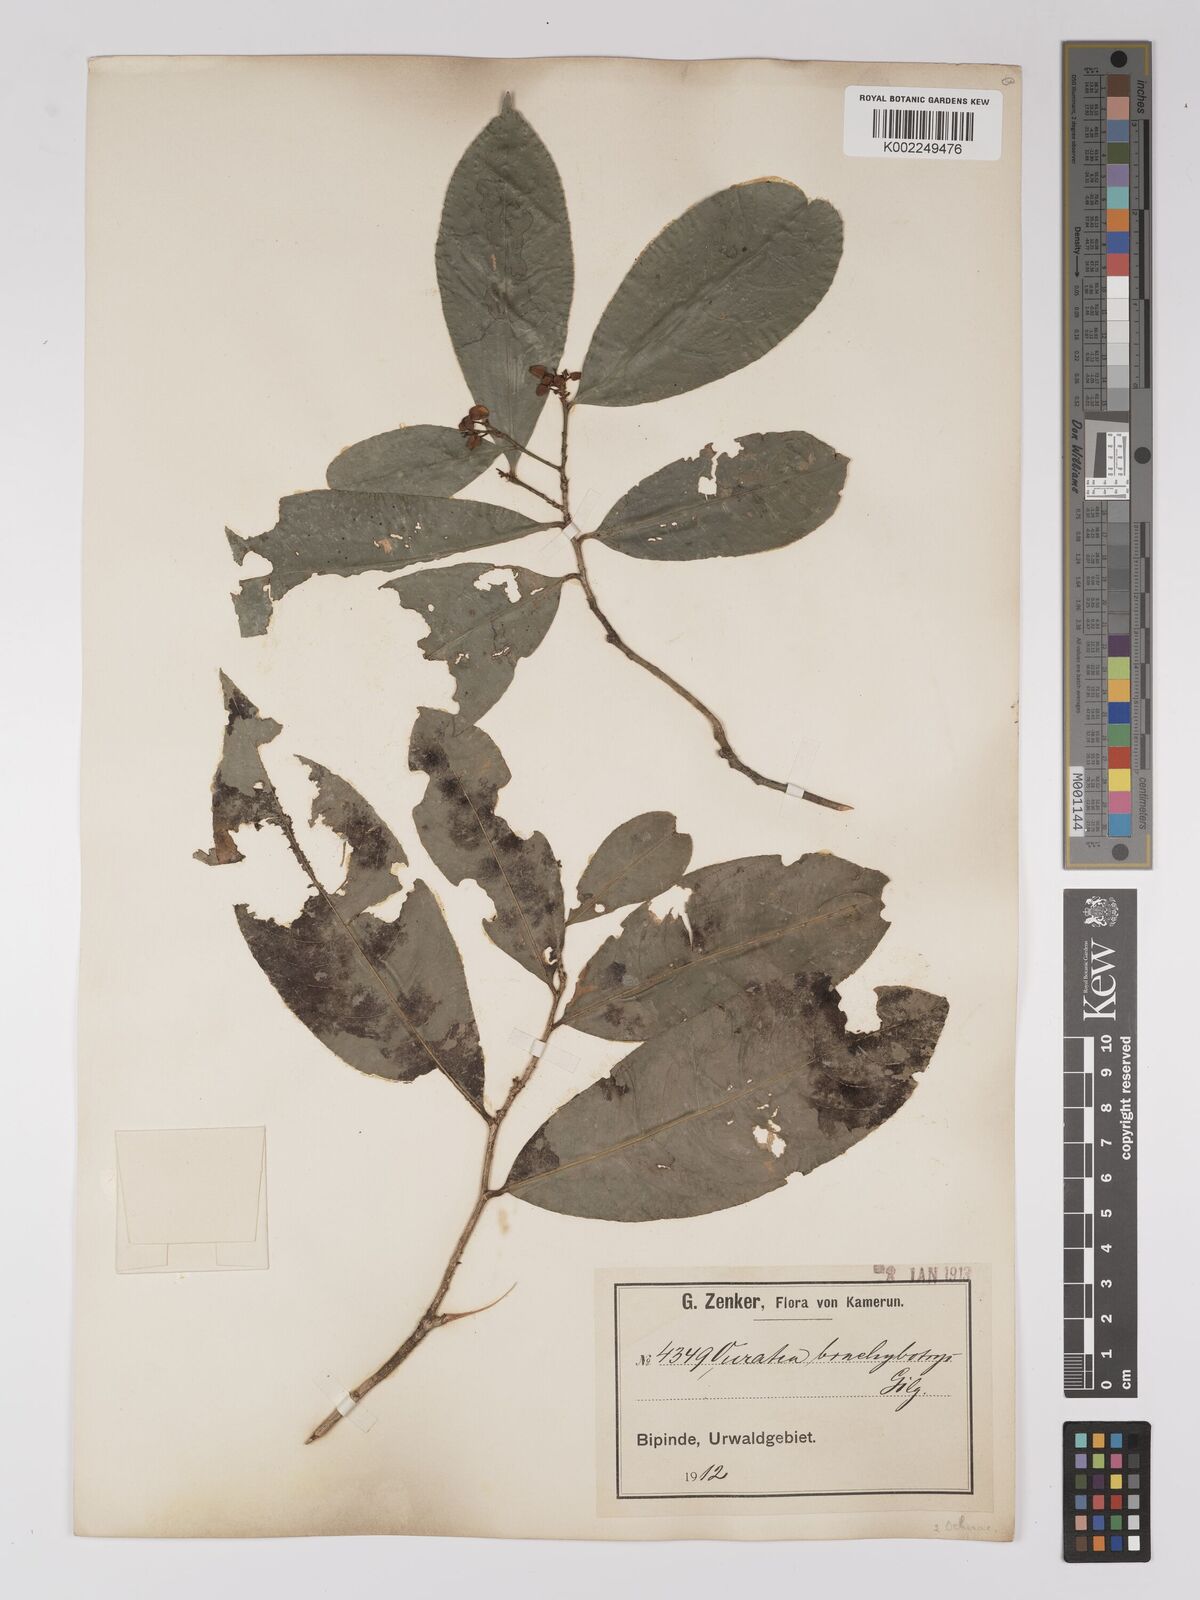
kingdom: Plantae
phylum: Tracheophyta
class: Magnoliopsida
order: Malpighiales
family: Ochnaceae
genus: Campylospermum
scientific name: Campylospermum glaucum
